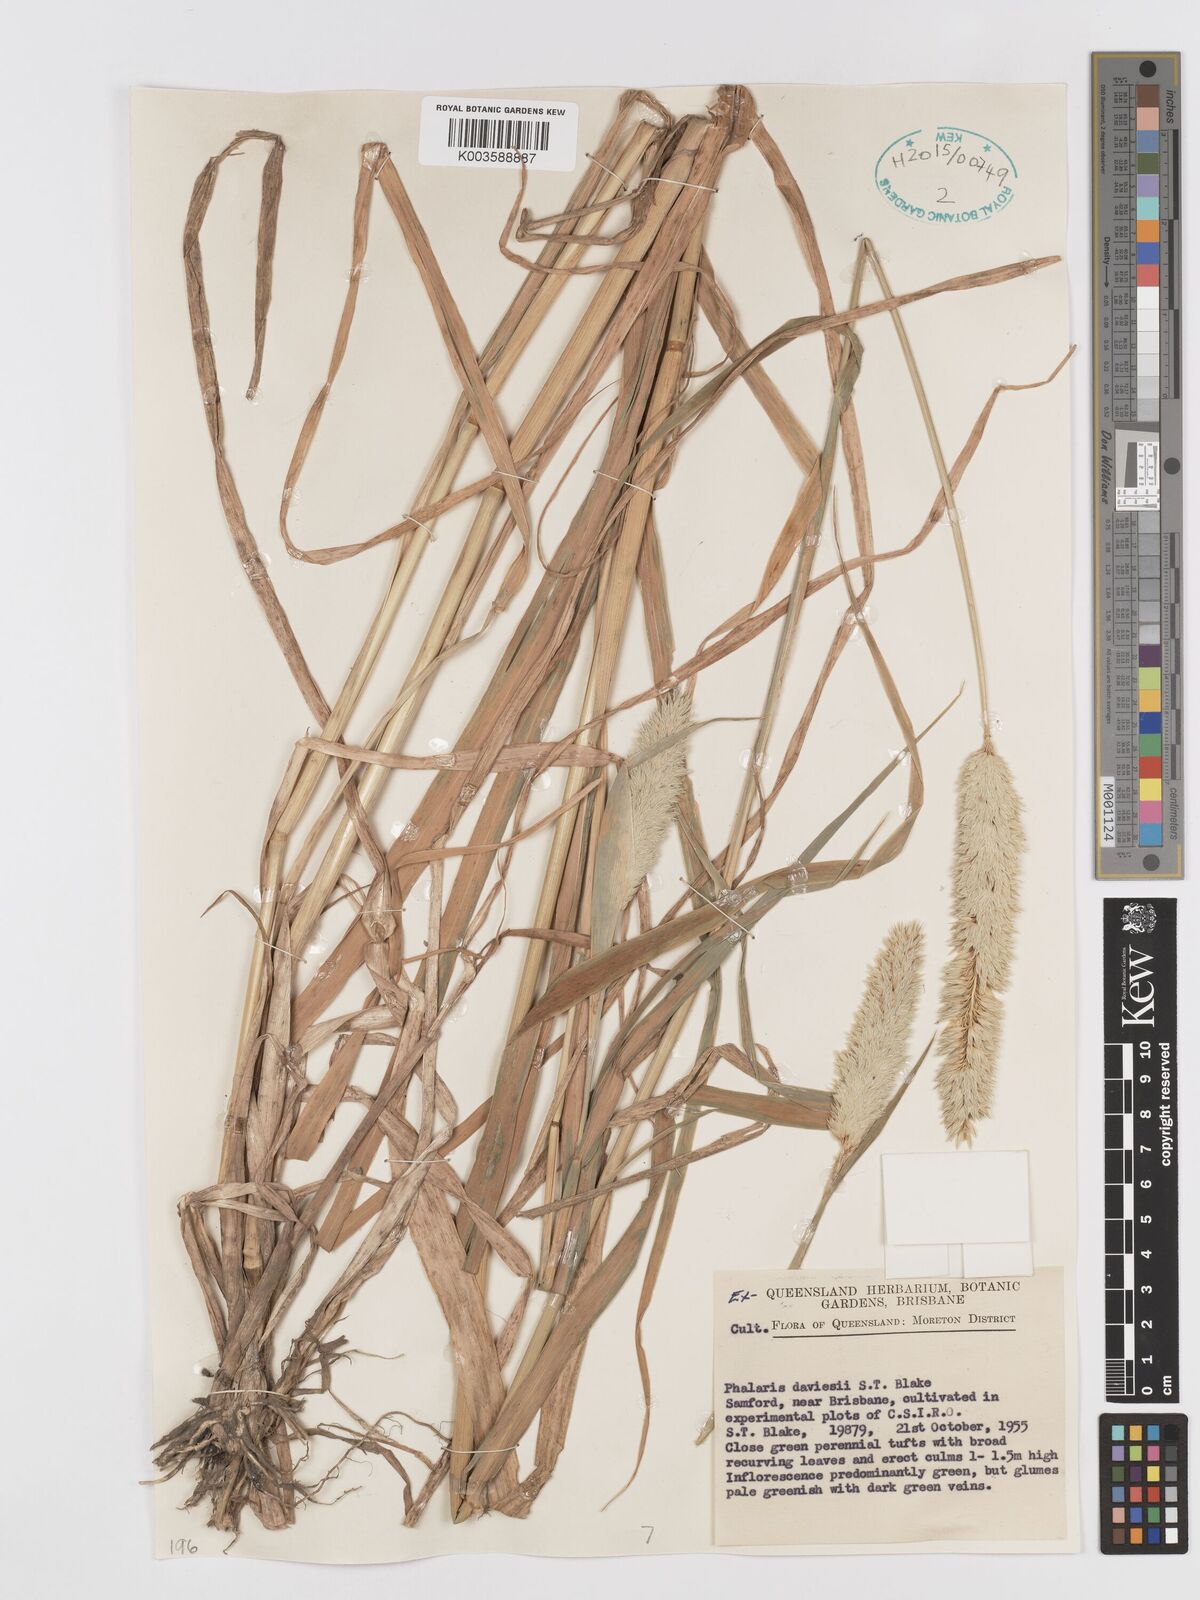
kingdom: Plantae
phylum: Tracheophyta
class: Liliopsida
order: Poales
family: Poaceae
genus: Phalaris
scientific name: Phalaris daviesii
